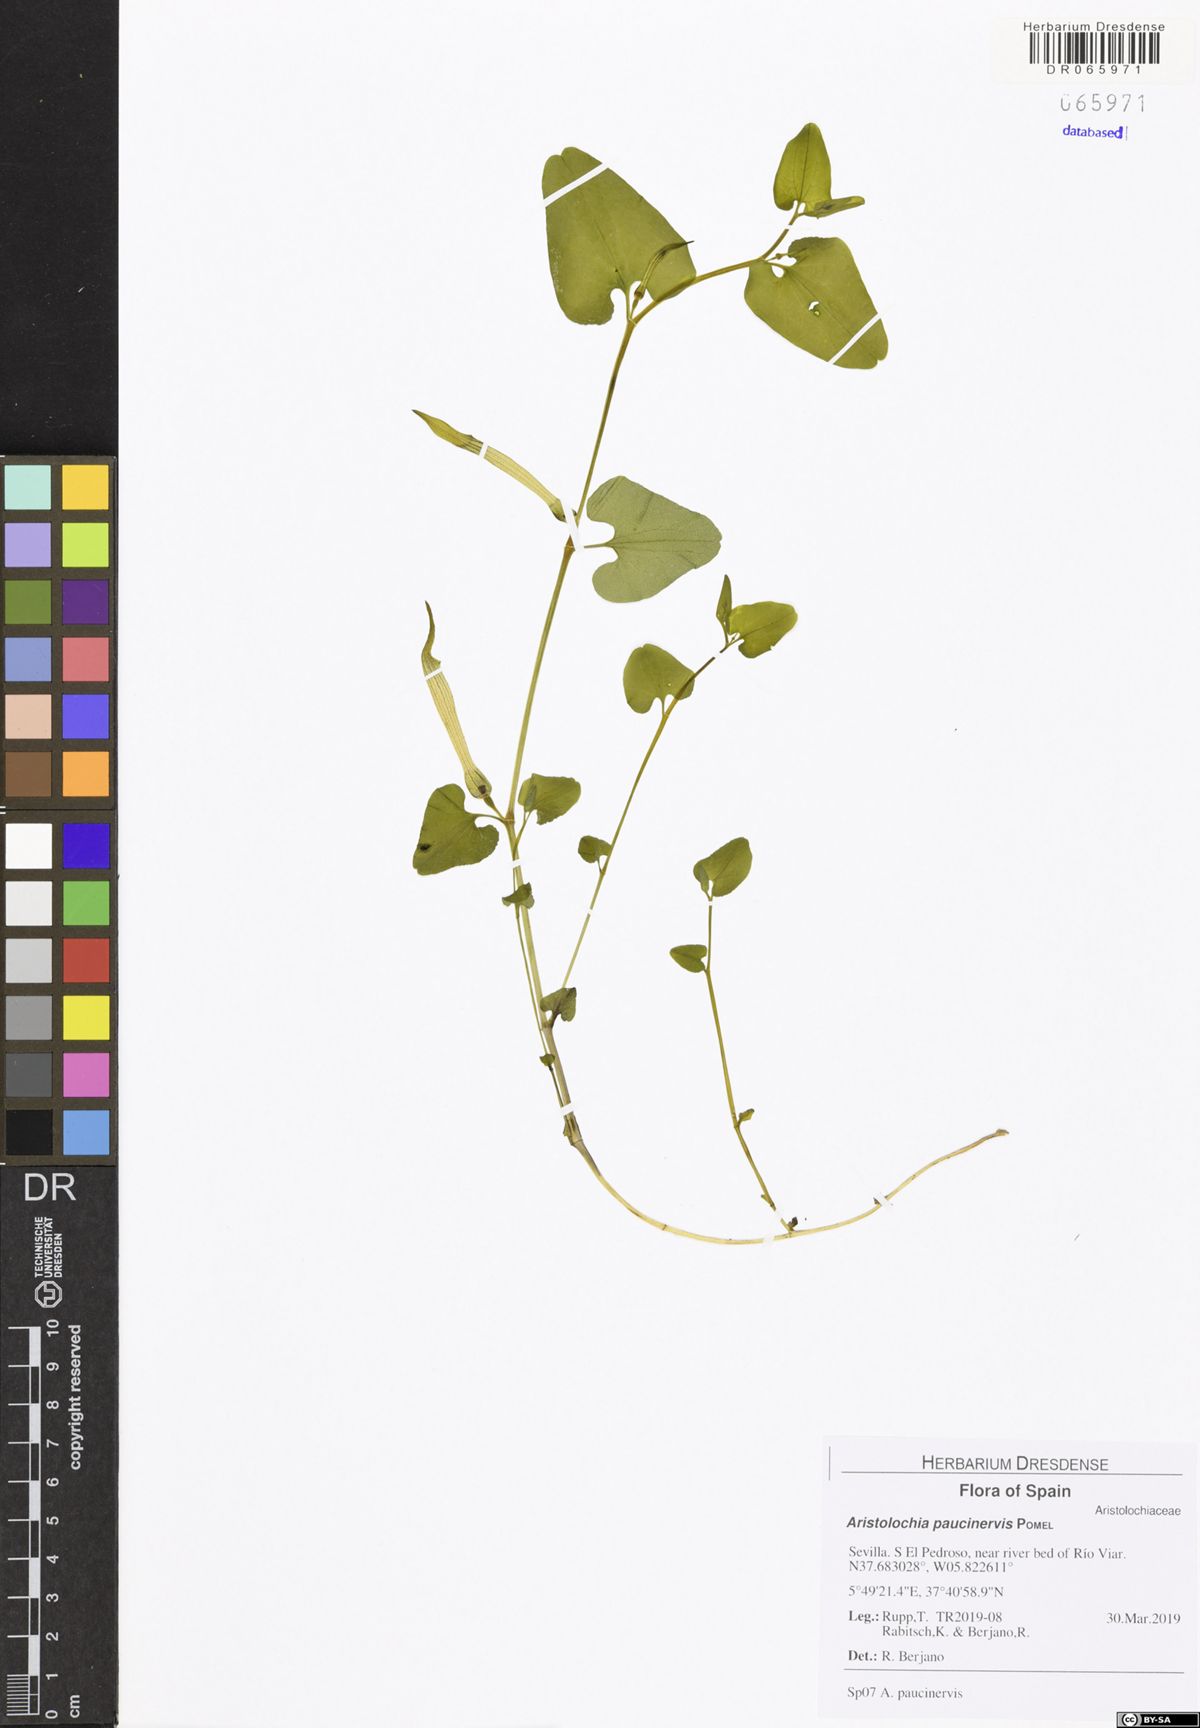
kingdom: Plantae
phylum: Tracheophyta
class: Magnoliopsida
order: Piperales
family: Aristolochiaceae
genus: Aristolochia
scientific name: Aristolochia paucinervis
